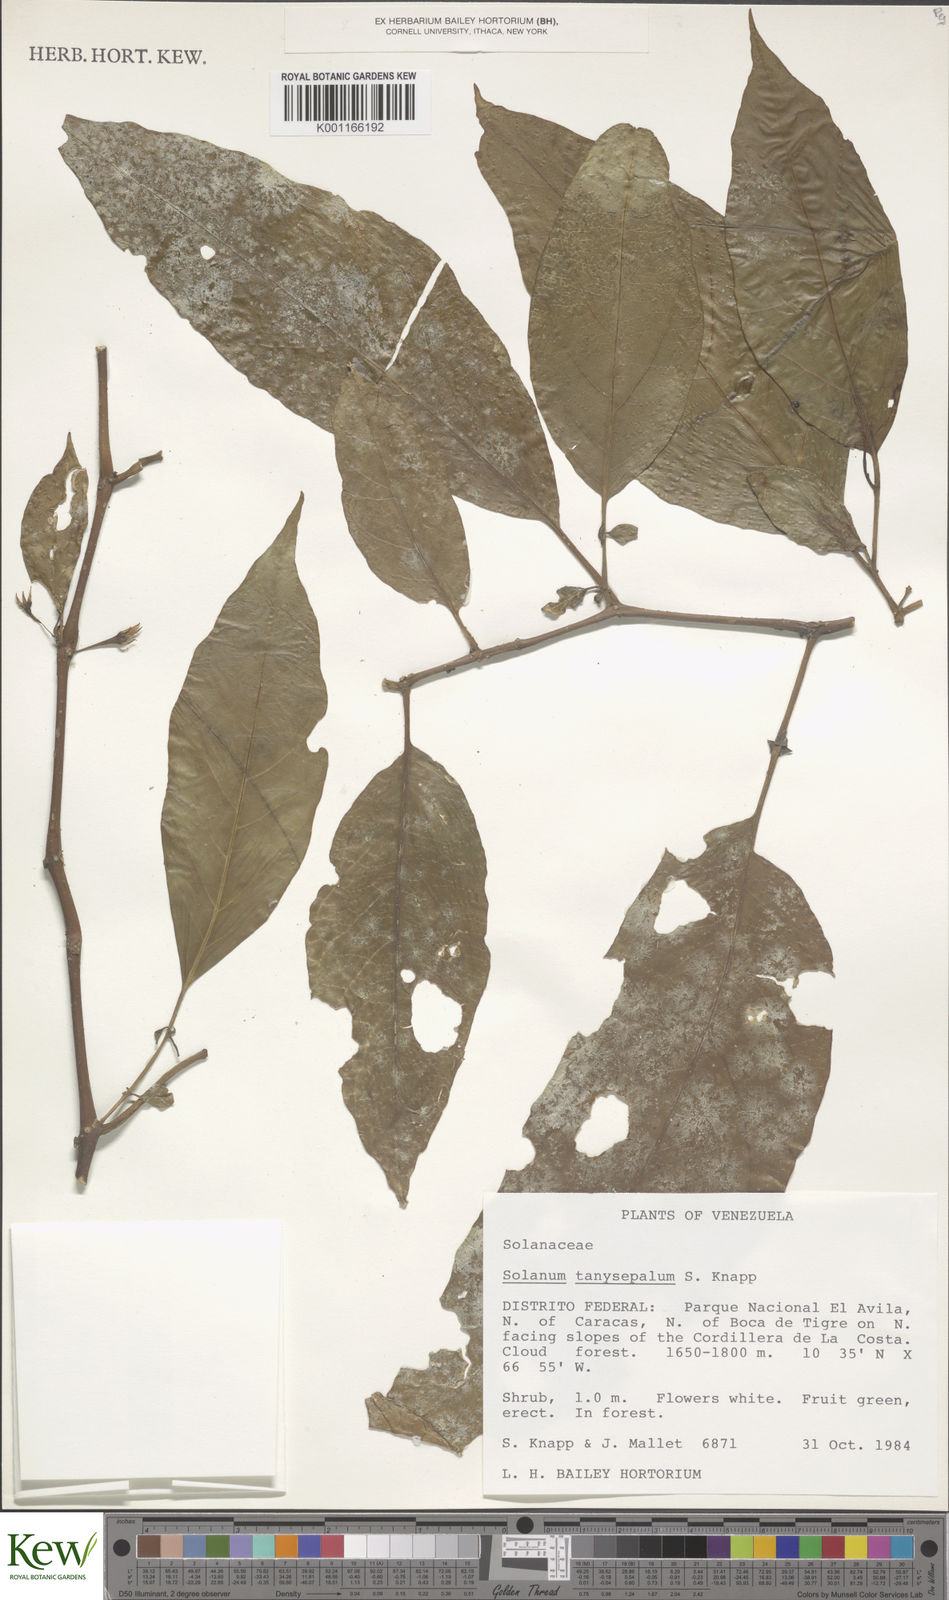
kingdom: Plantae
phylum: Tracheophyta
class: Magnoliopsida
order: Solanales
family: Solanaceae
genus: Solanum
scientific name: Solanum tanysepalum
